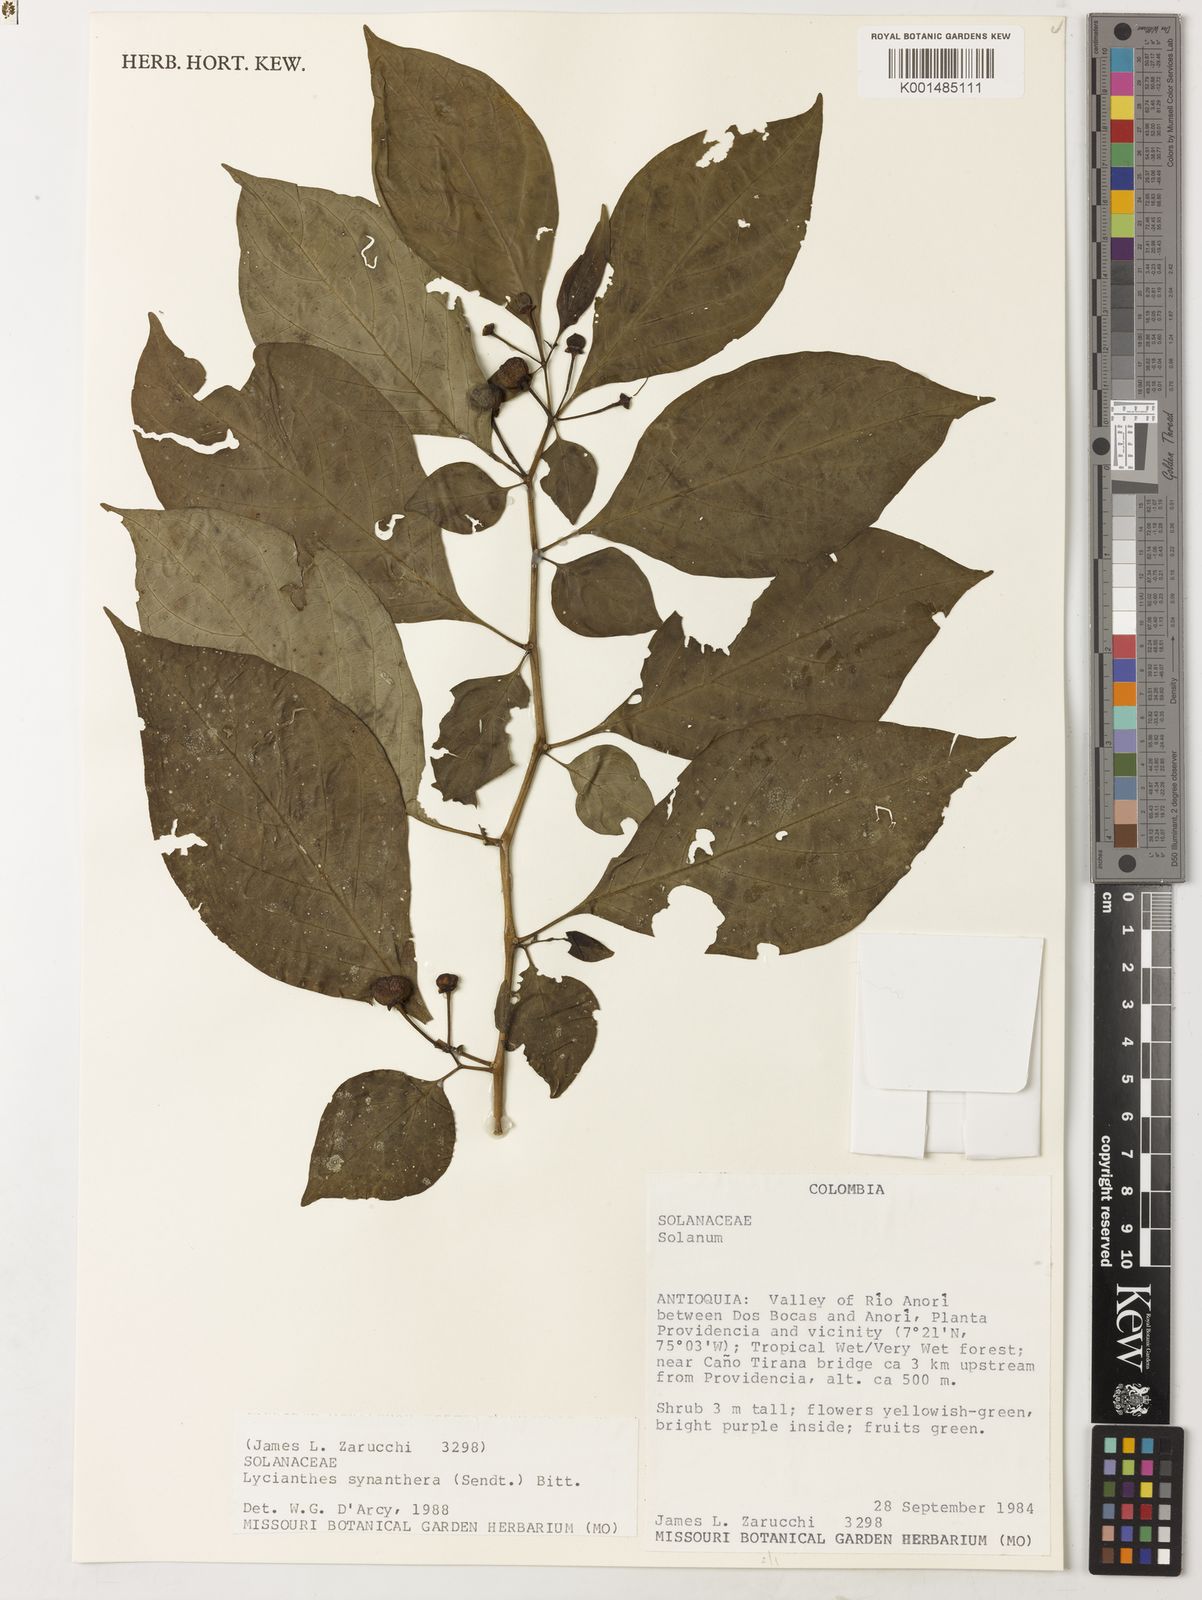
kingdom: Plantae
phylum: Tracheophyta
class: Magnoliopsida
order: Solanales
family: Solanaceae
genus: Lycianthes
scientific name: Lycianthes synanthera
